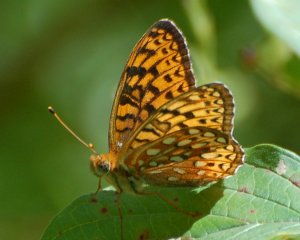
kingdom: Animalia
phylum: Arthropoda
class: Insecta
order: Lepidoptera
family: Nymphalidae
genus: Speyeria
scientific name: Speyeria atlantis
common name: Atlantis Fritillary
